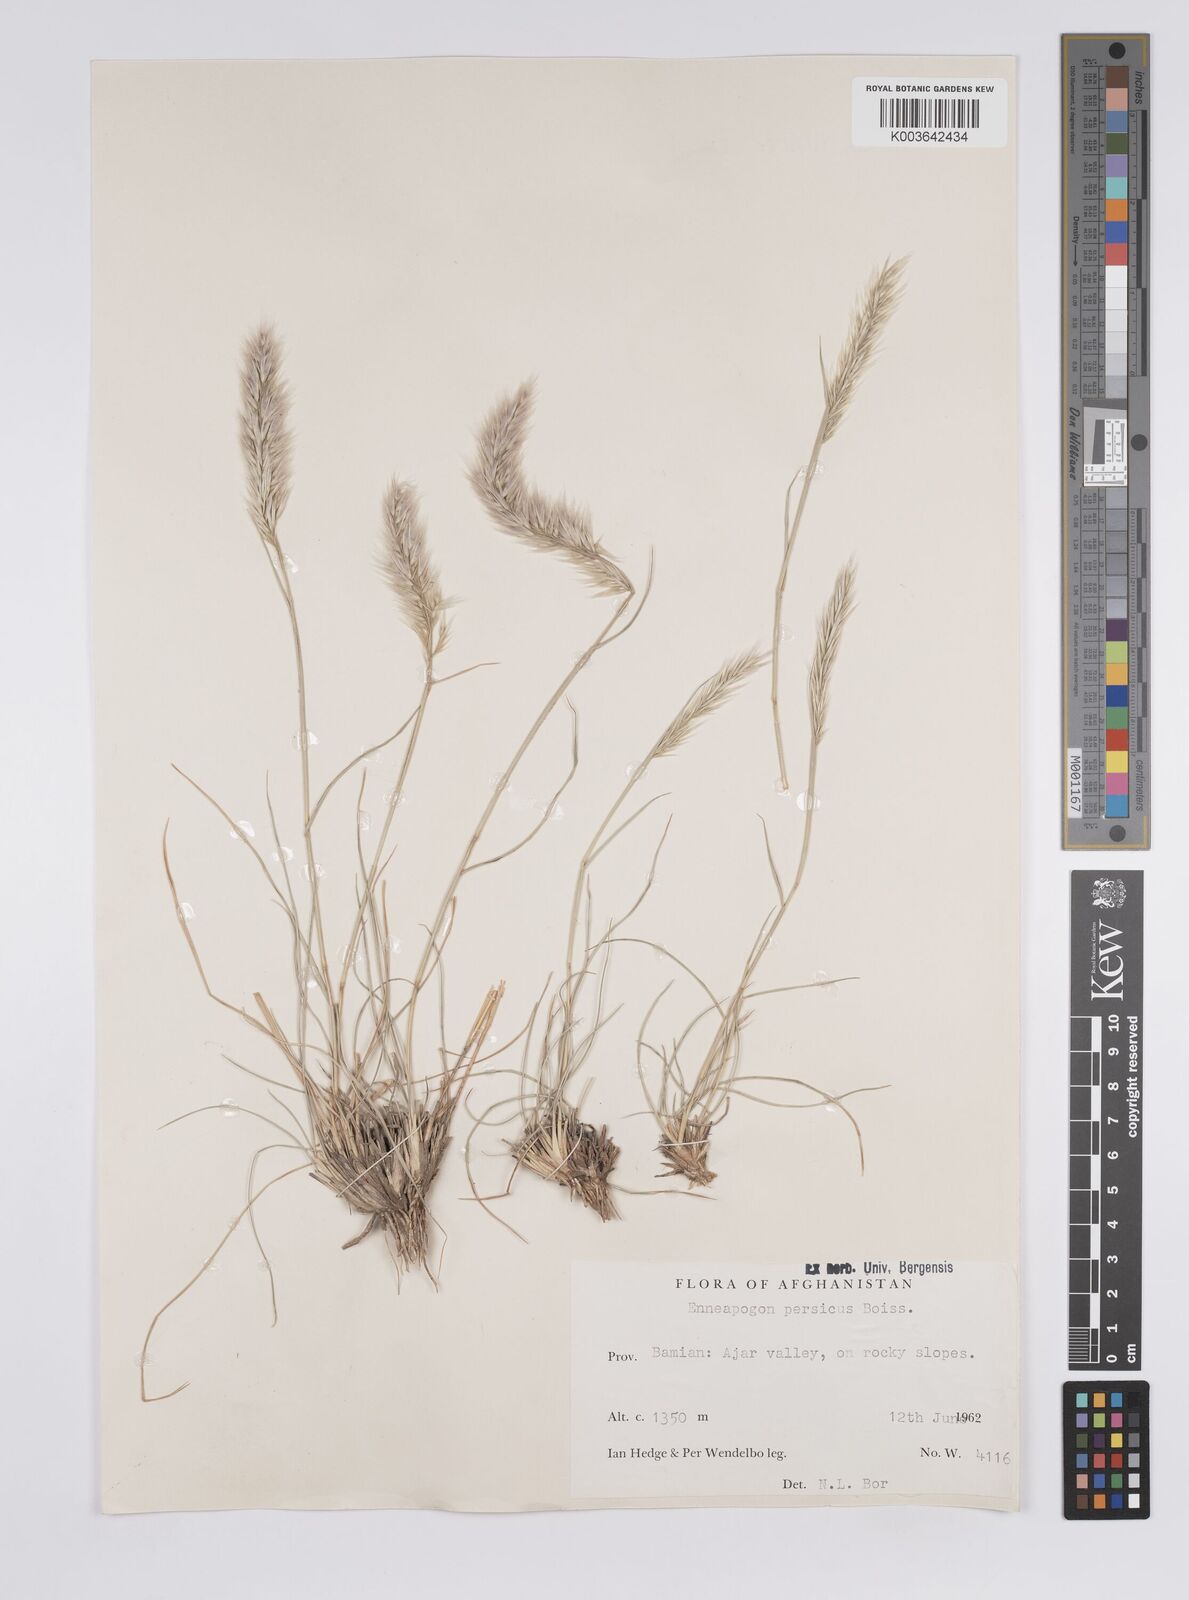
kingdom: Plantae
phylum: Tracheophyta
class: Liliopsida
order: Poales
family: Poaceae
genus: Enneapogon
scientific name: Enneapogon persicus
